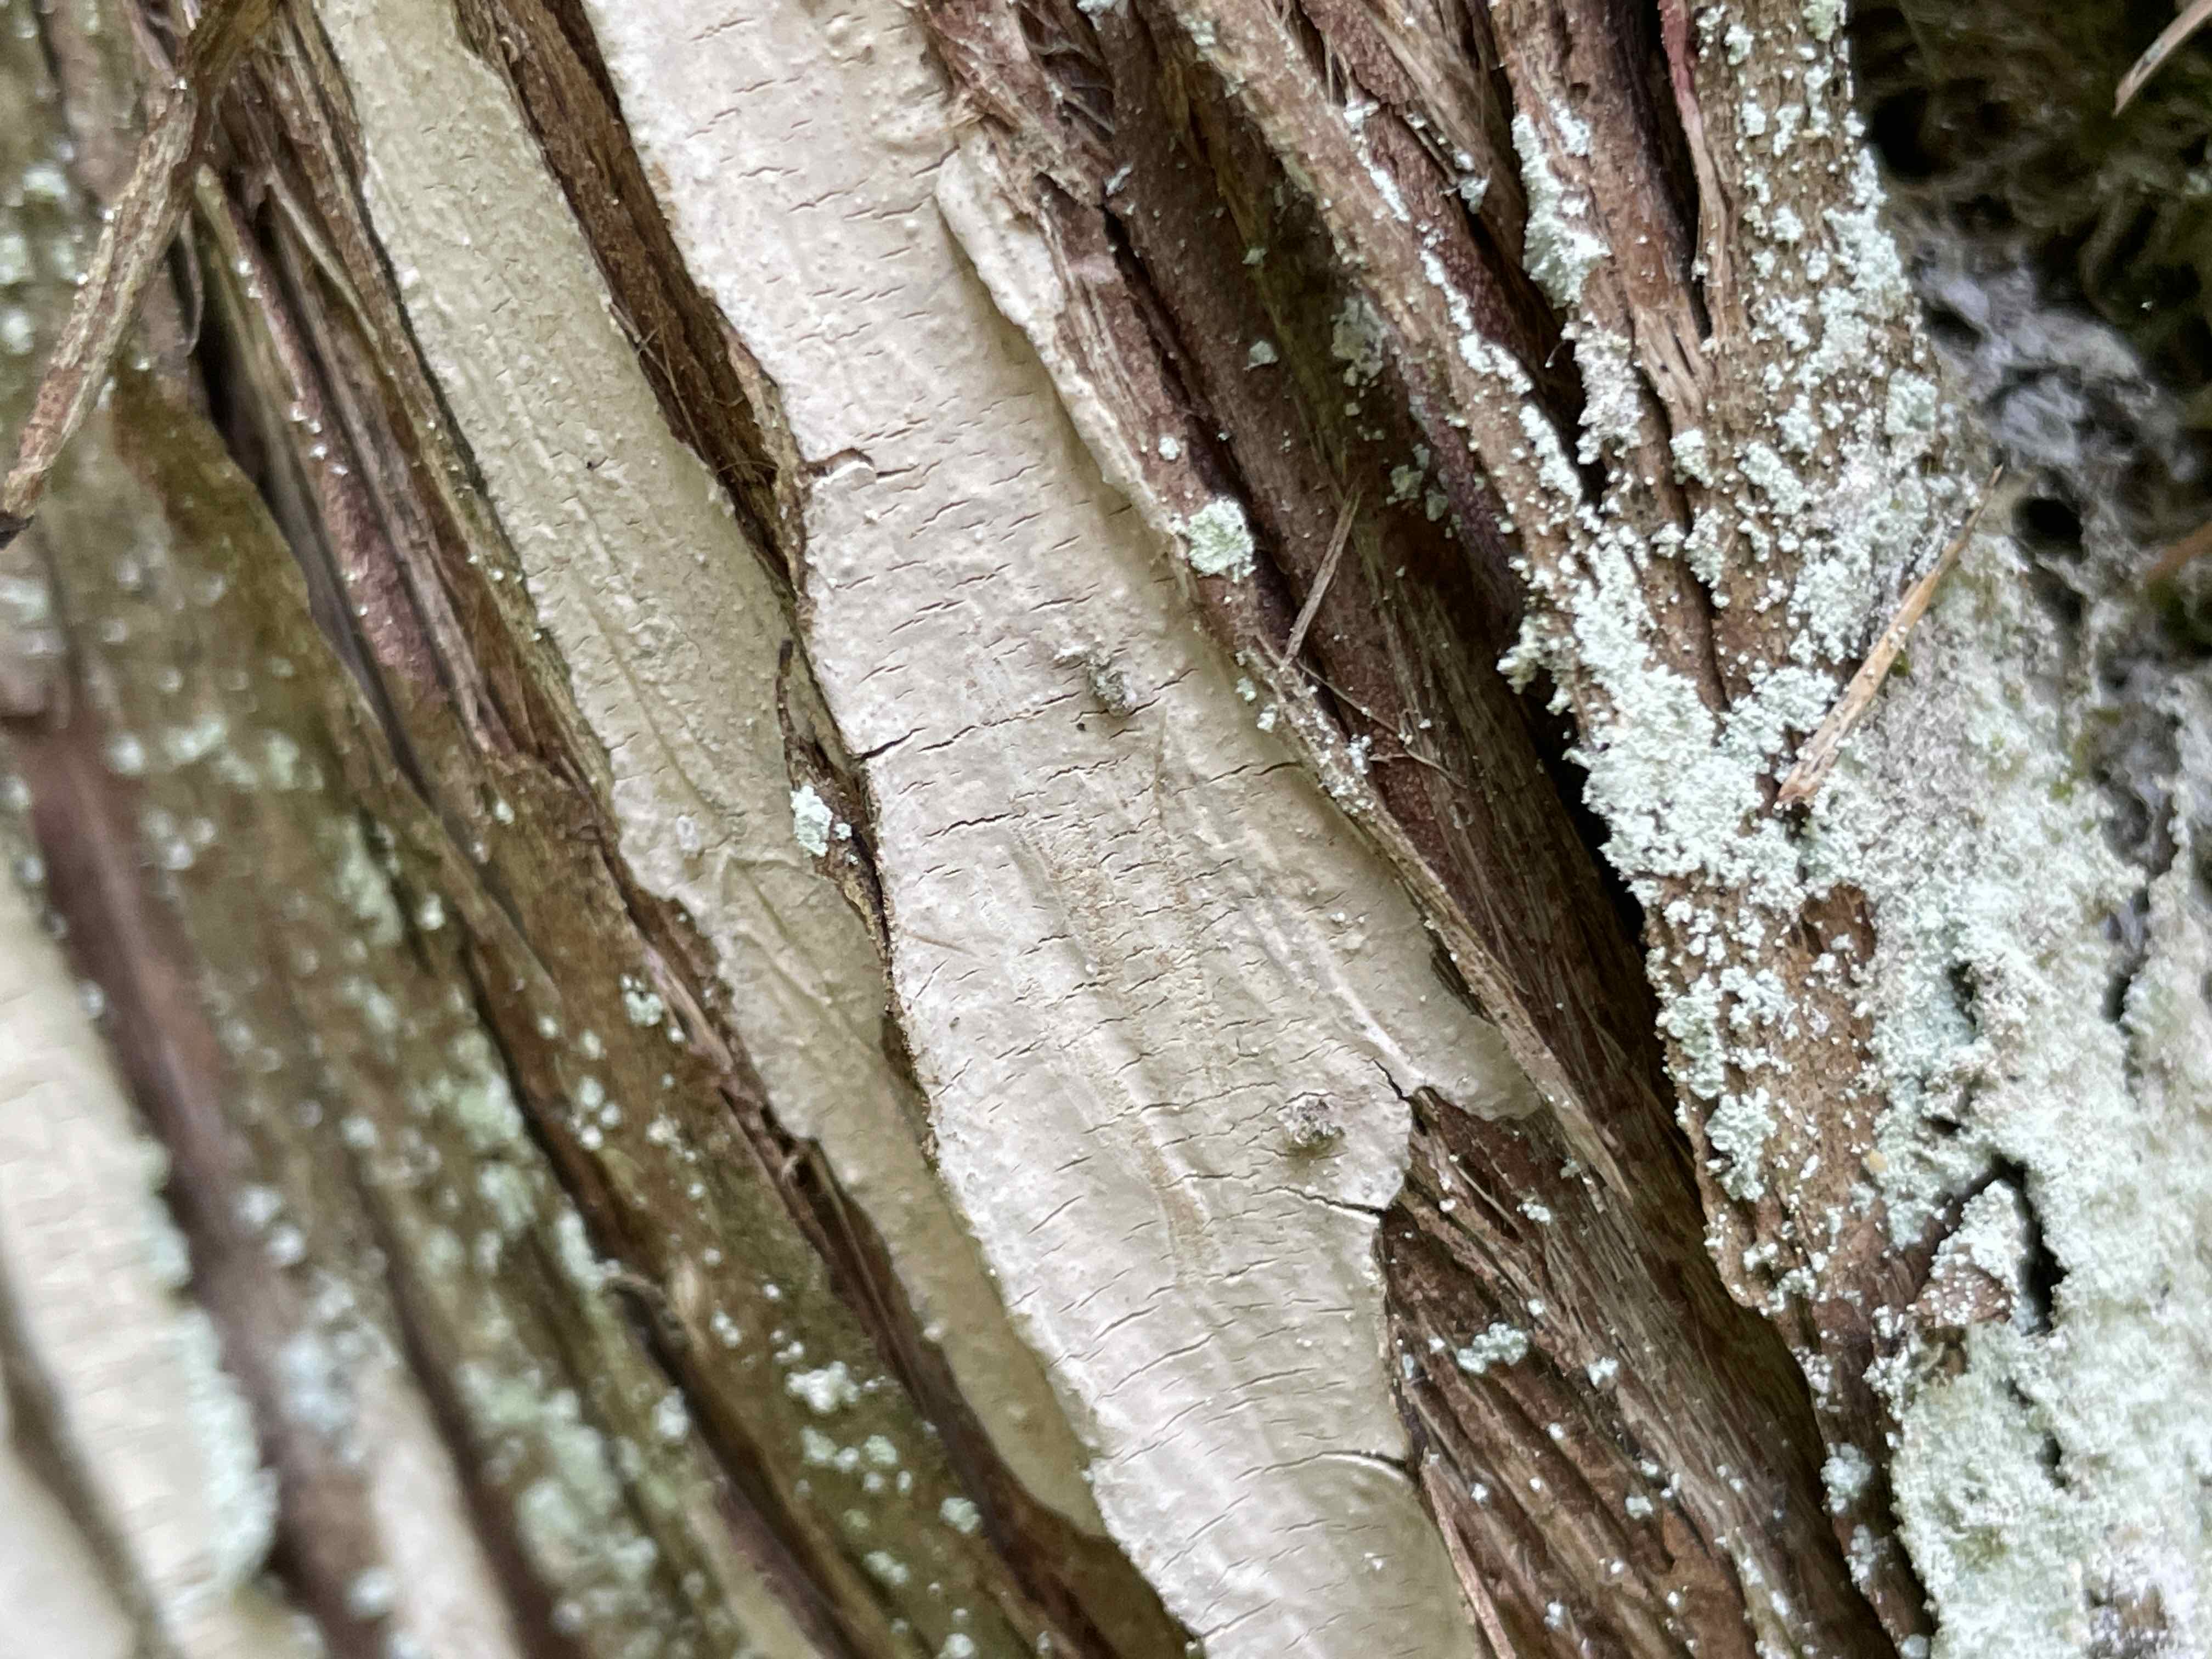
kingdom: Fungi
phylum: Basidiomycota
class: Agaricomycetes
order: Russulales
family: Echinodontiaceae
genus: Amylostereum
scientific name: Amylostereum laevigatum
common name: ene-lædersvamp
